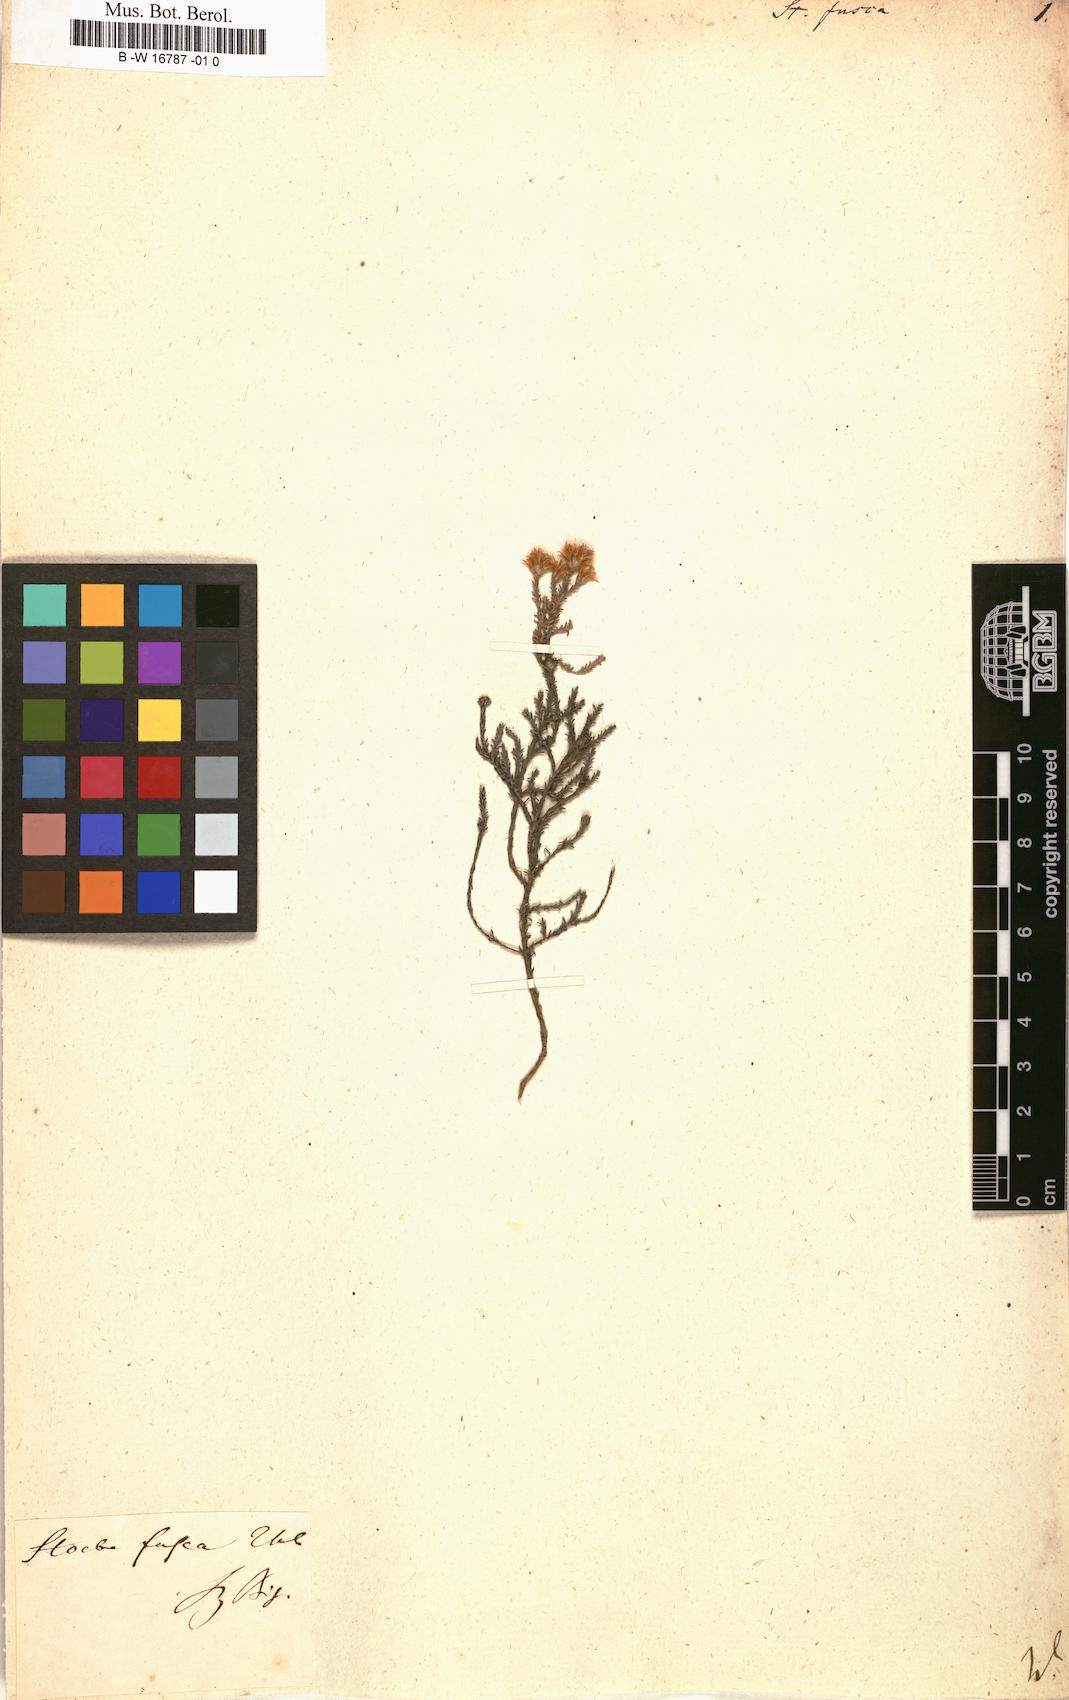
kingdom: Plantae
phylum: Tracheophyta
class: Magnoliopsida
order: Asterales
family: Asteraceae
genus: Stoebe
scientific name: Stoebe fusca
